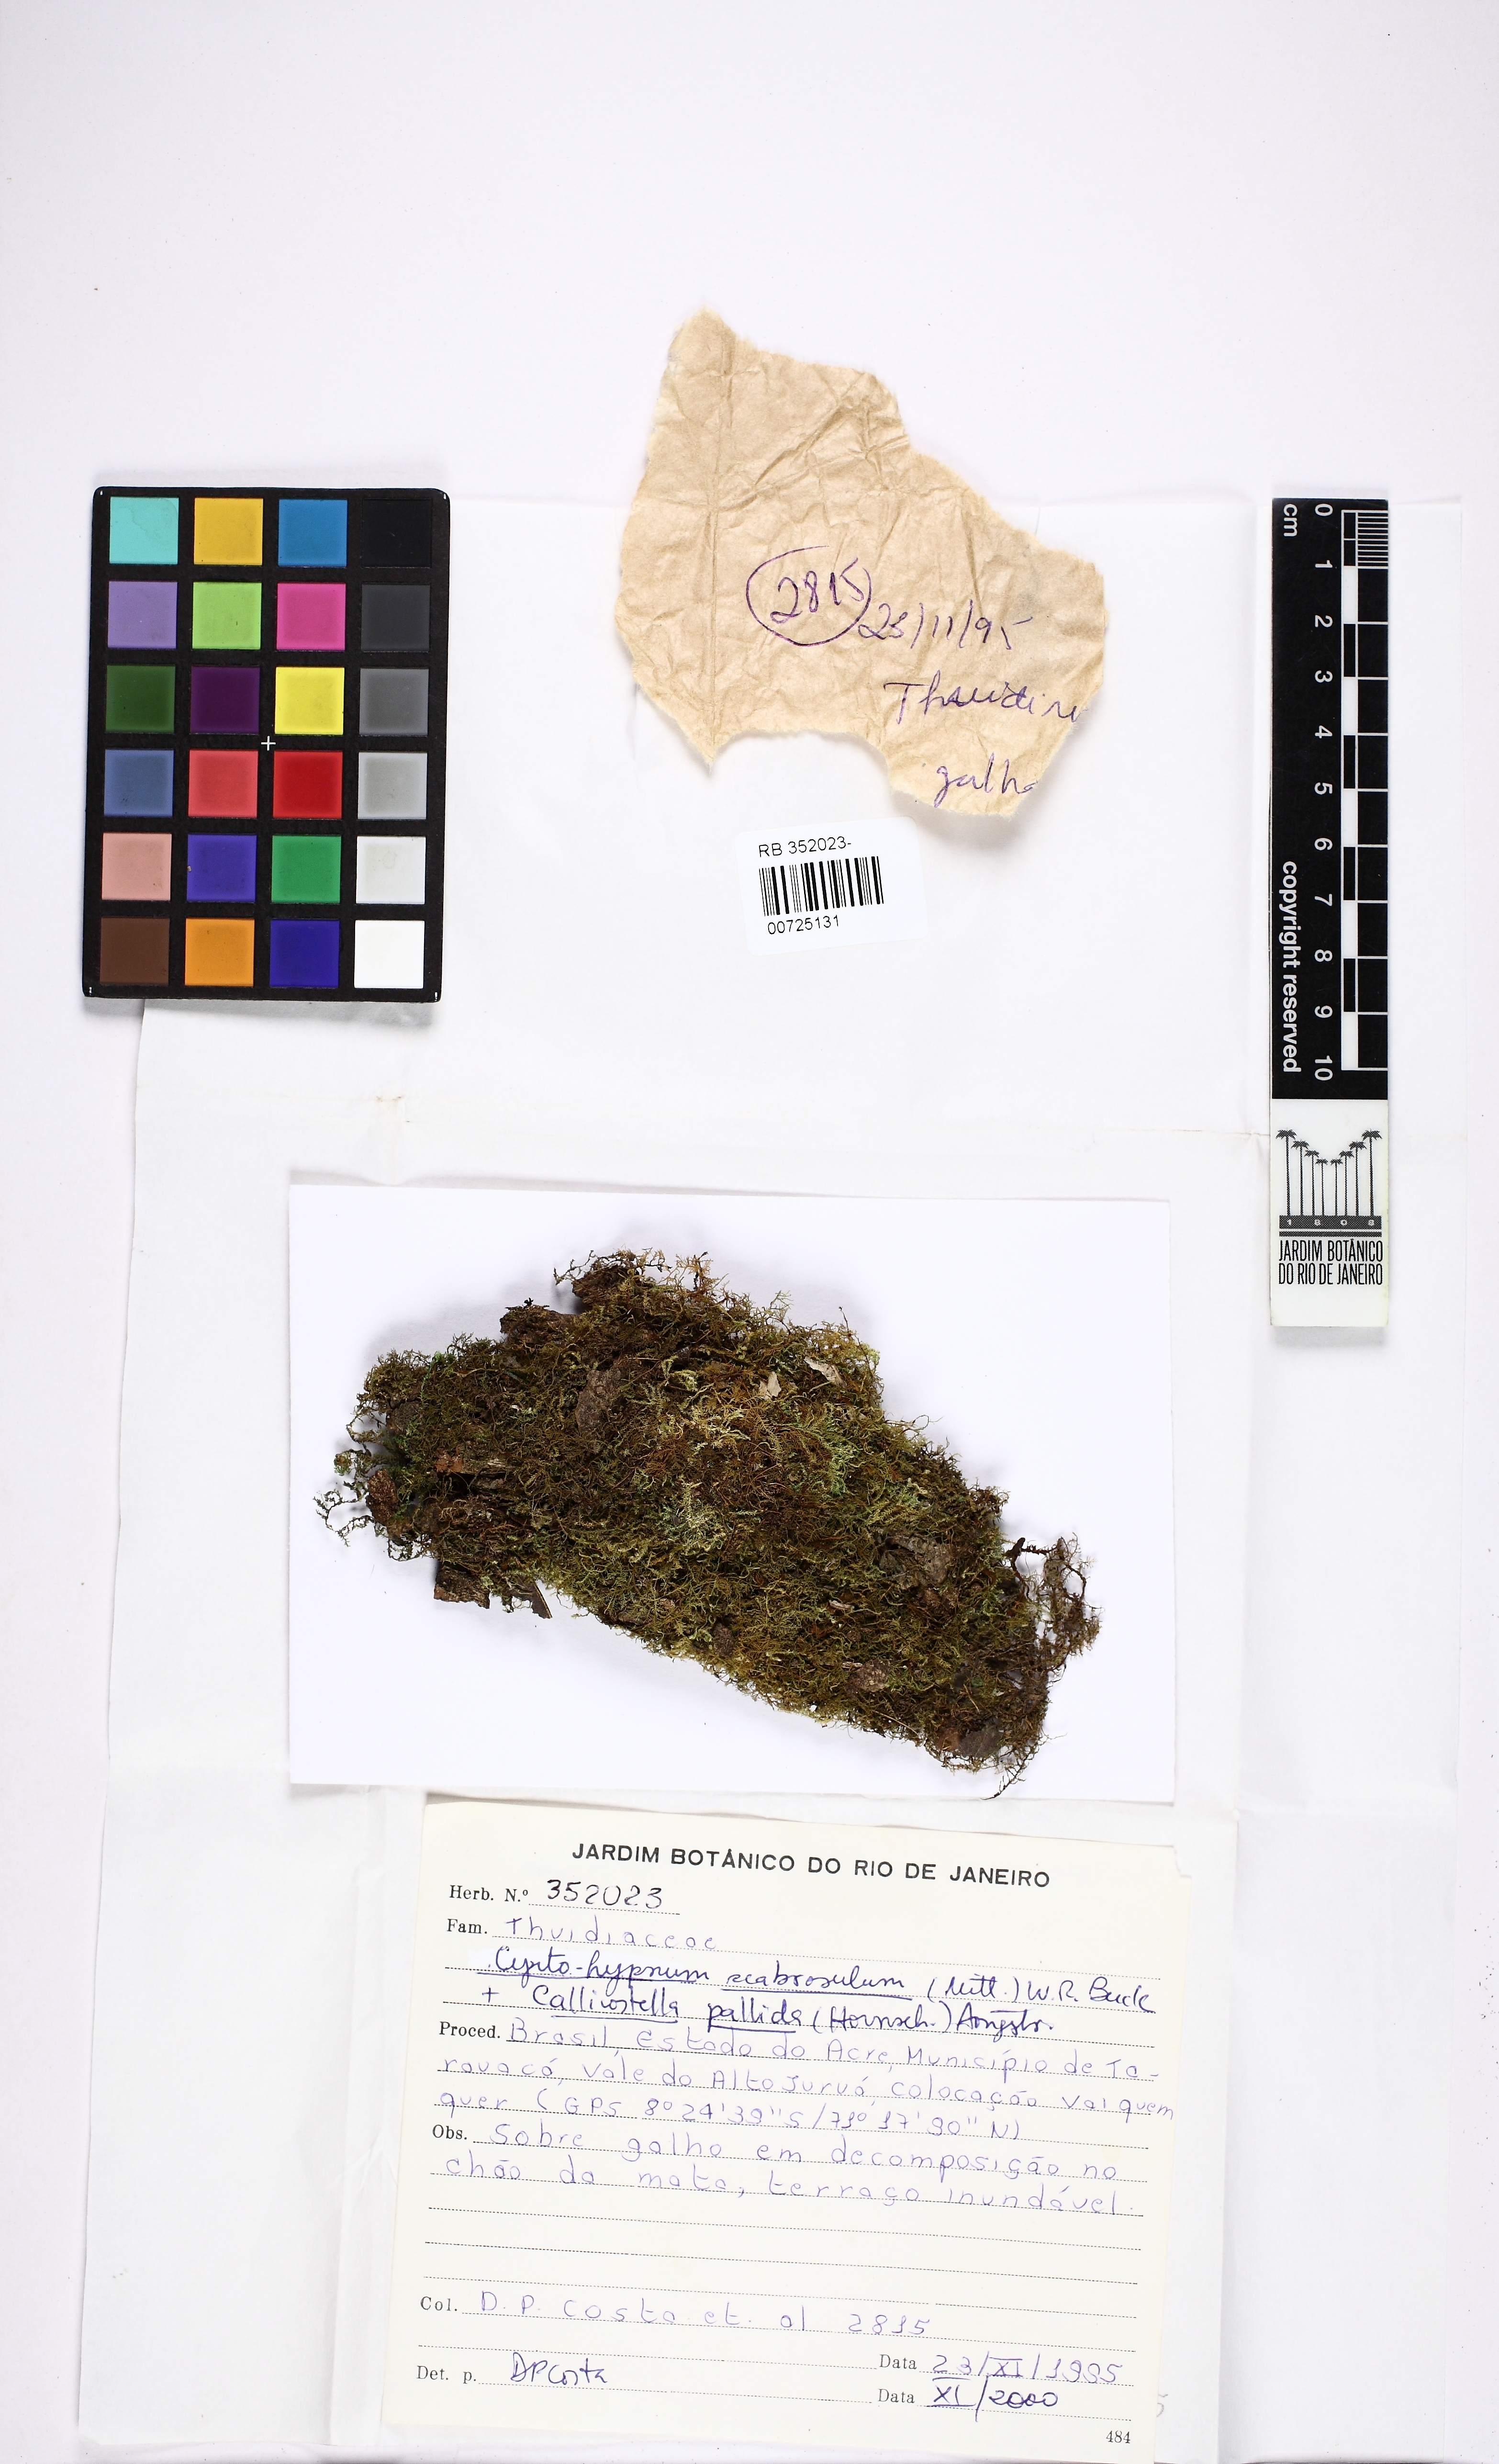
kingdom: Plantae
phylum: Bryophyta
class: Bryopsida
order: Hypnales
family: Thuidiaceae
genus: Pelekium
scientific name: Pelekium scabrosulum
